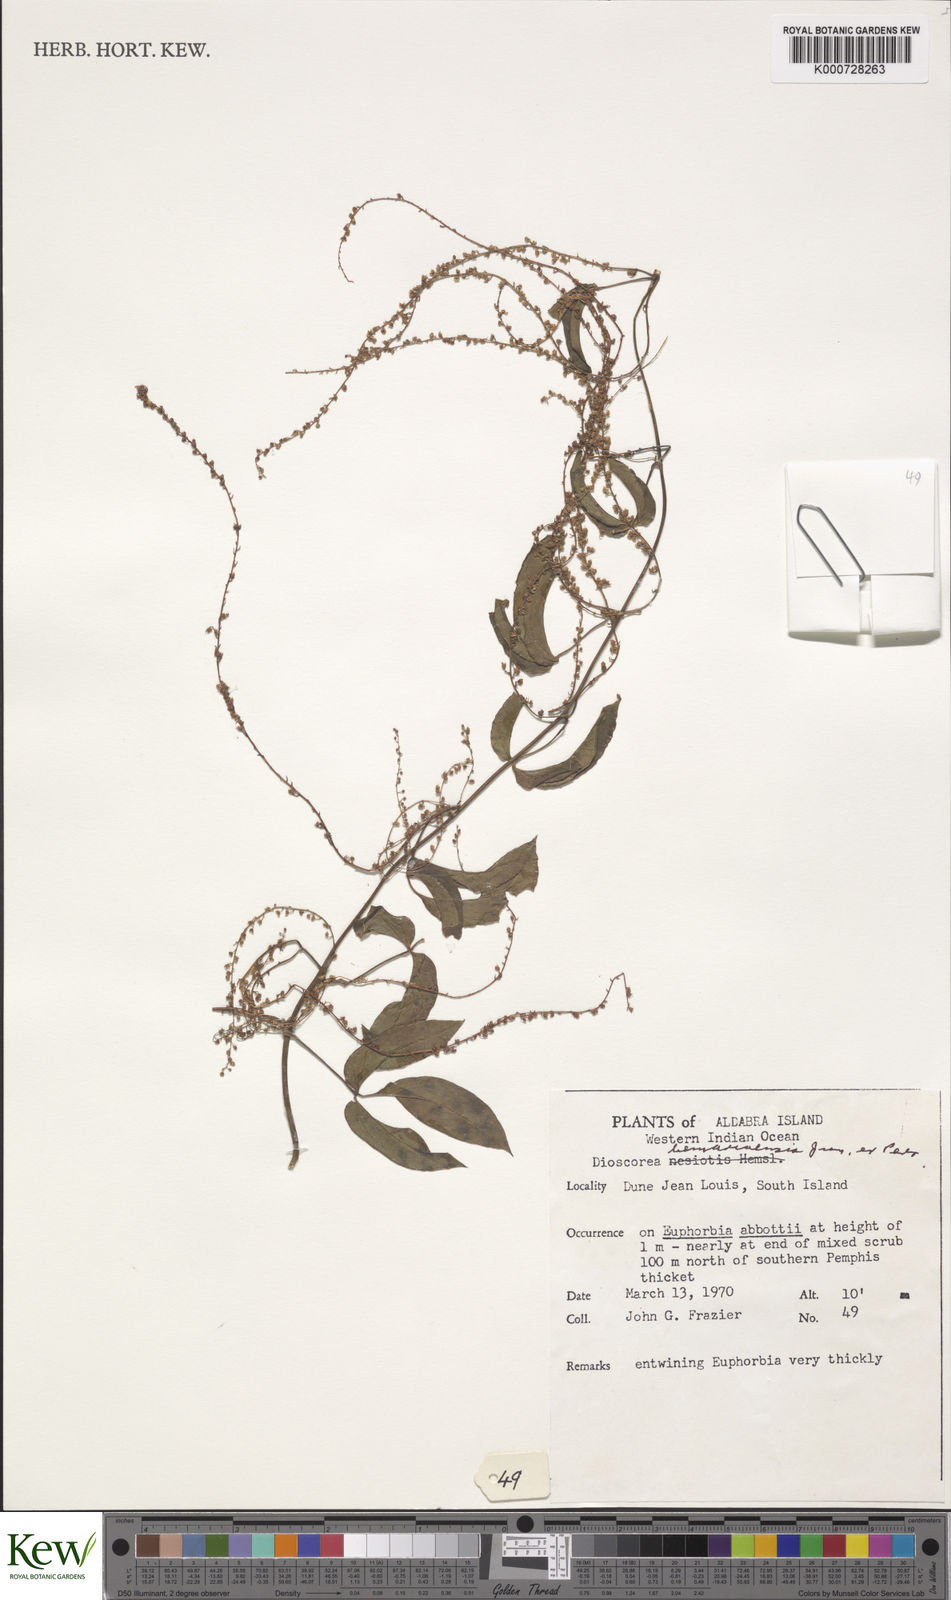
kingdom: Plantae
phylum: Tracheophyta
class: Liliopsida
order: Dioscoreales
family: Dioscoreaceae
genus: Dioscorea
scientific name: Dioscorea bemarivensis
